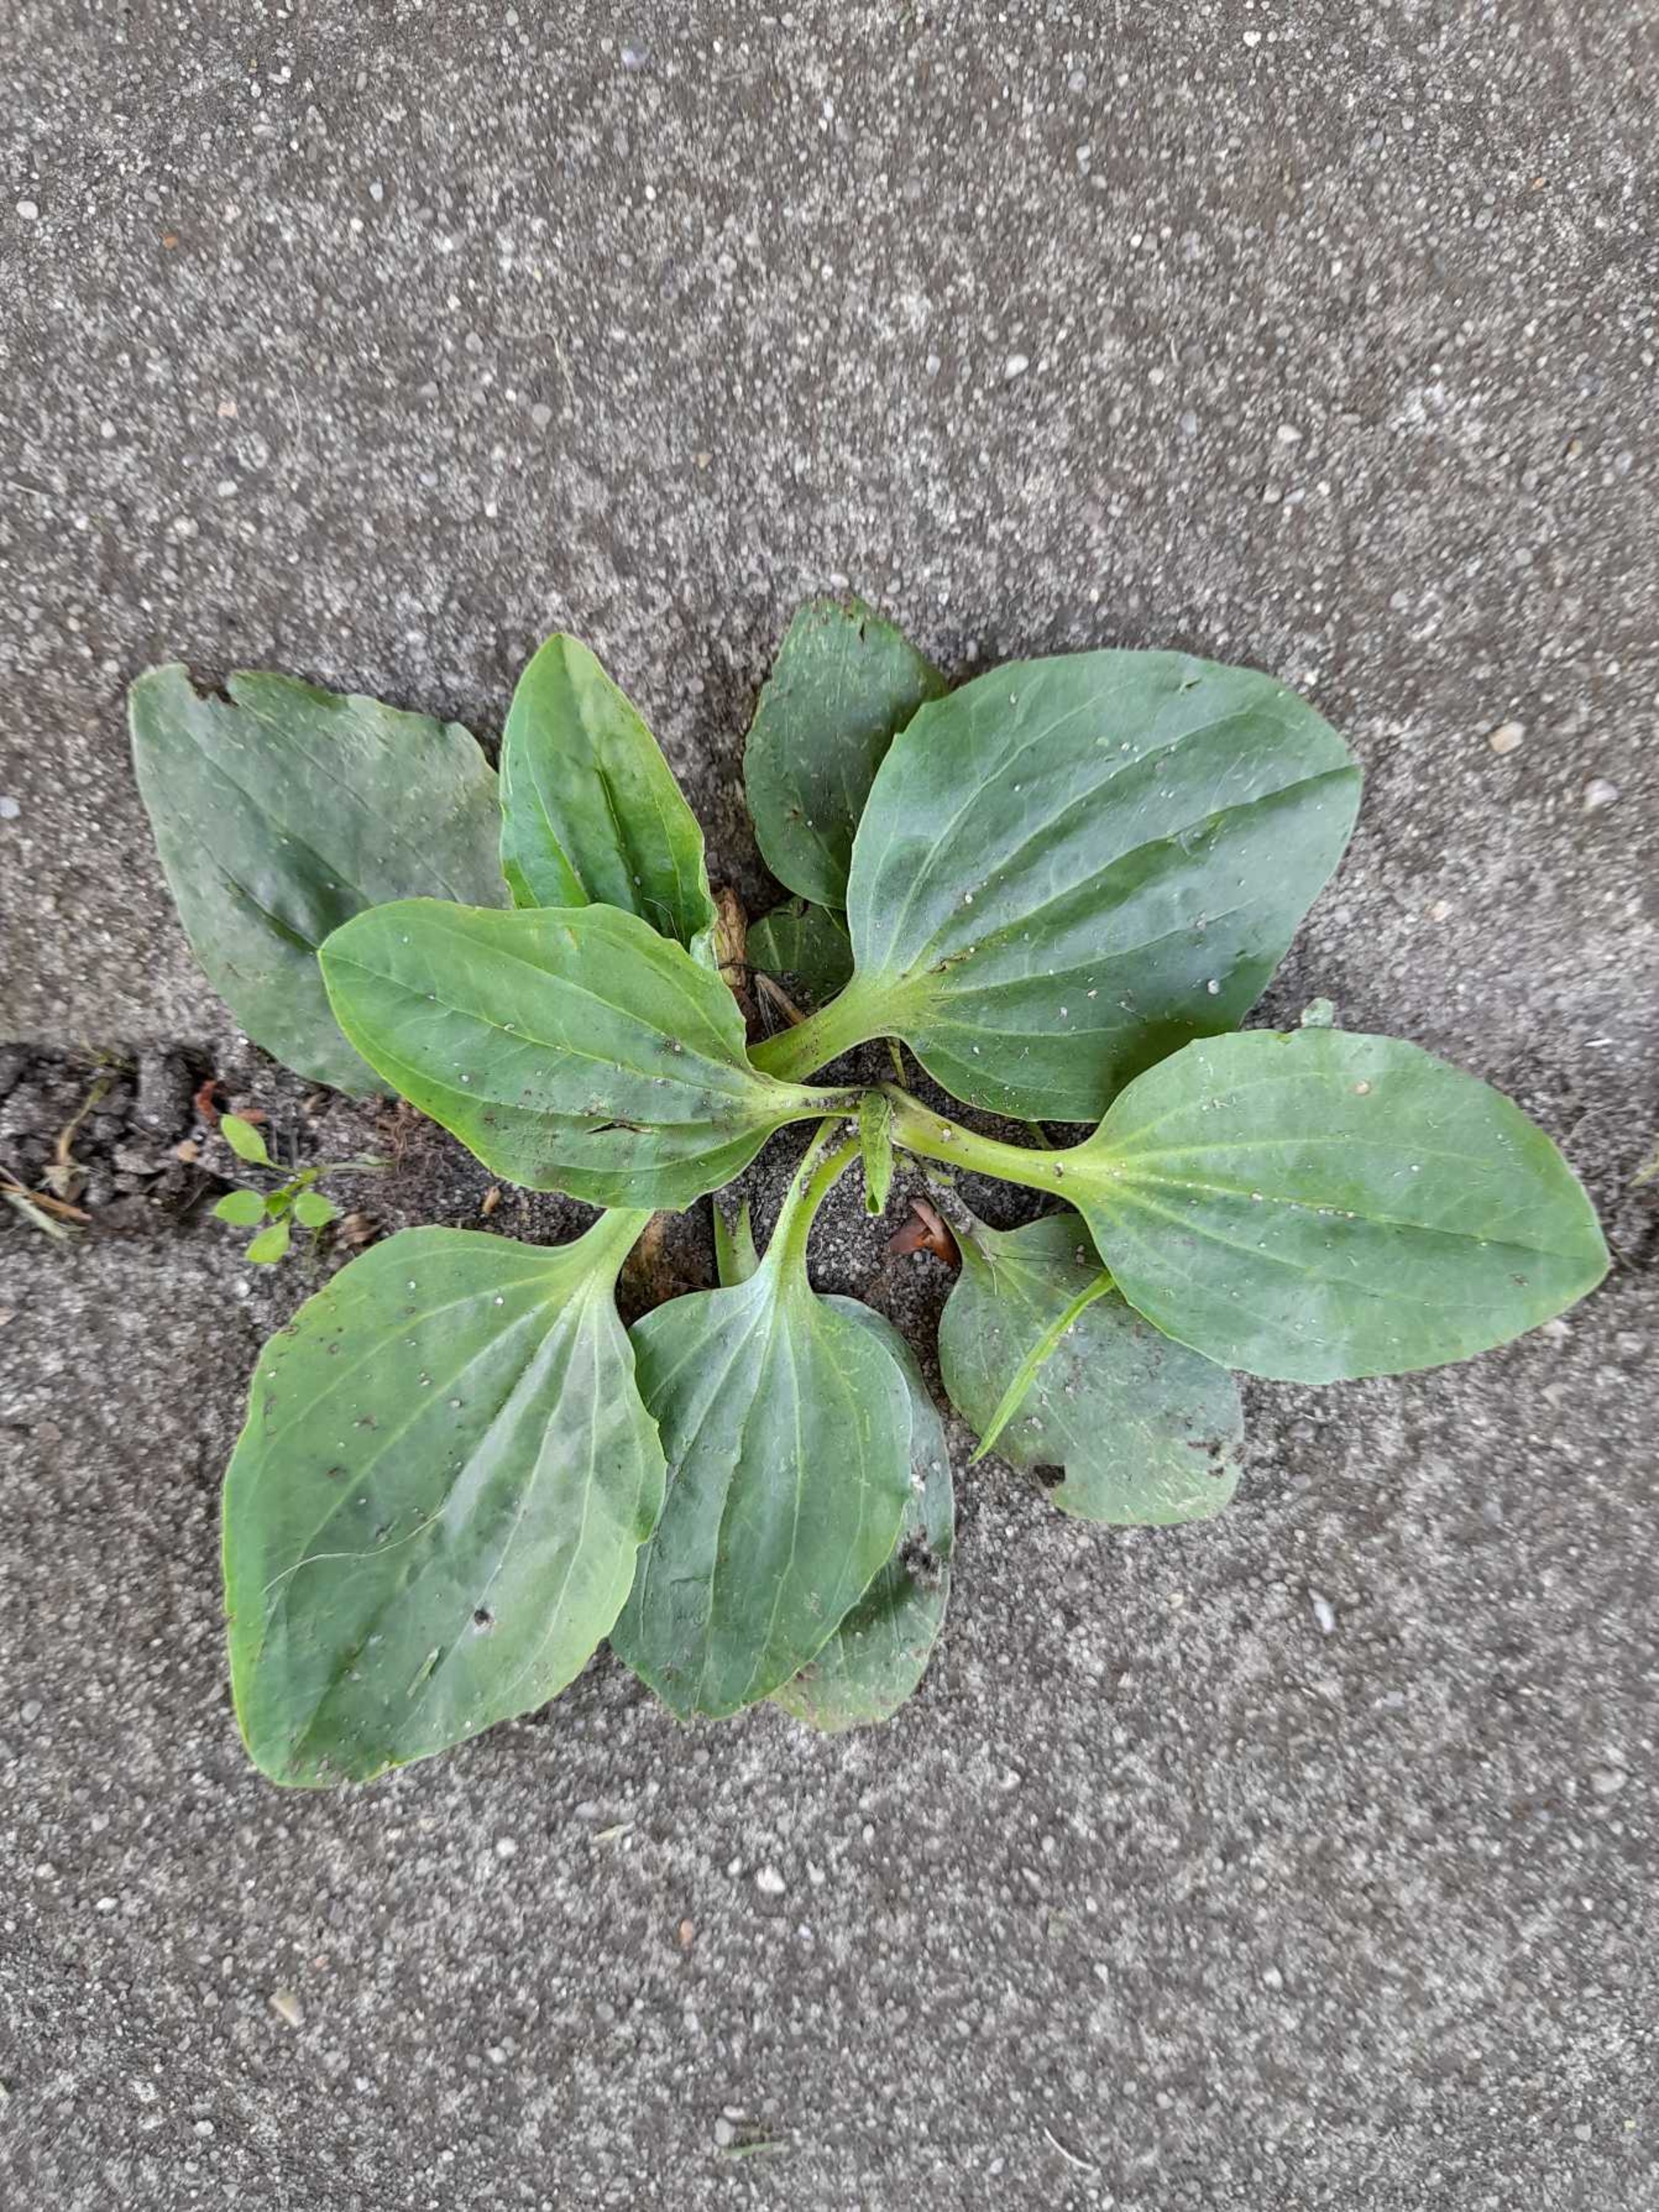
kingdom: Plantae
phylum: Tracheophyta
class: Magnoliopsida
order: Lamiales
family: Plantaginaceae
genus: Plantago
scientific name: Plantago major
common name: Glat vejbred
